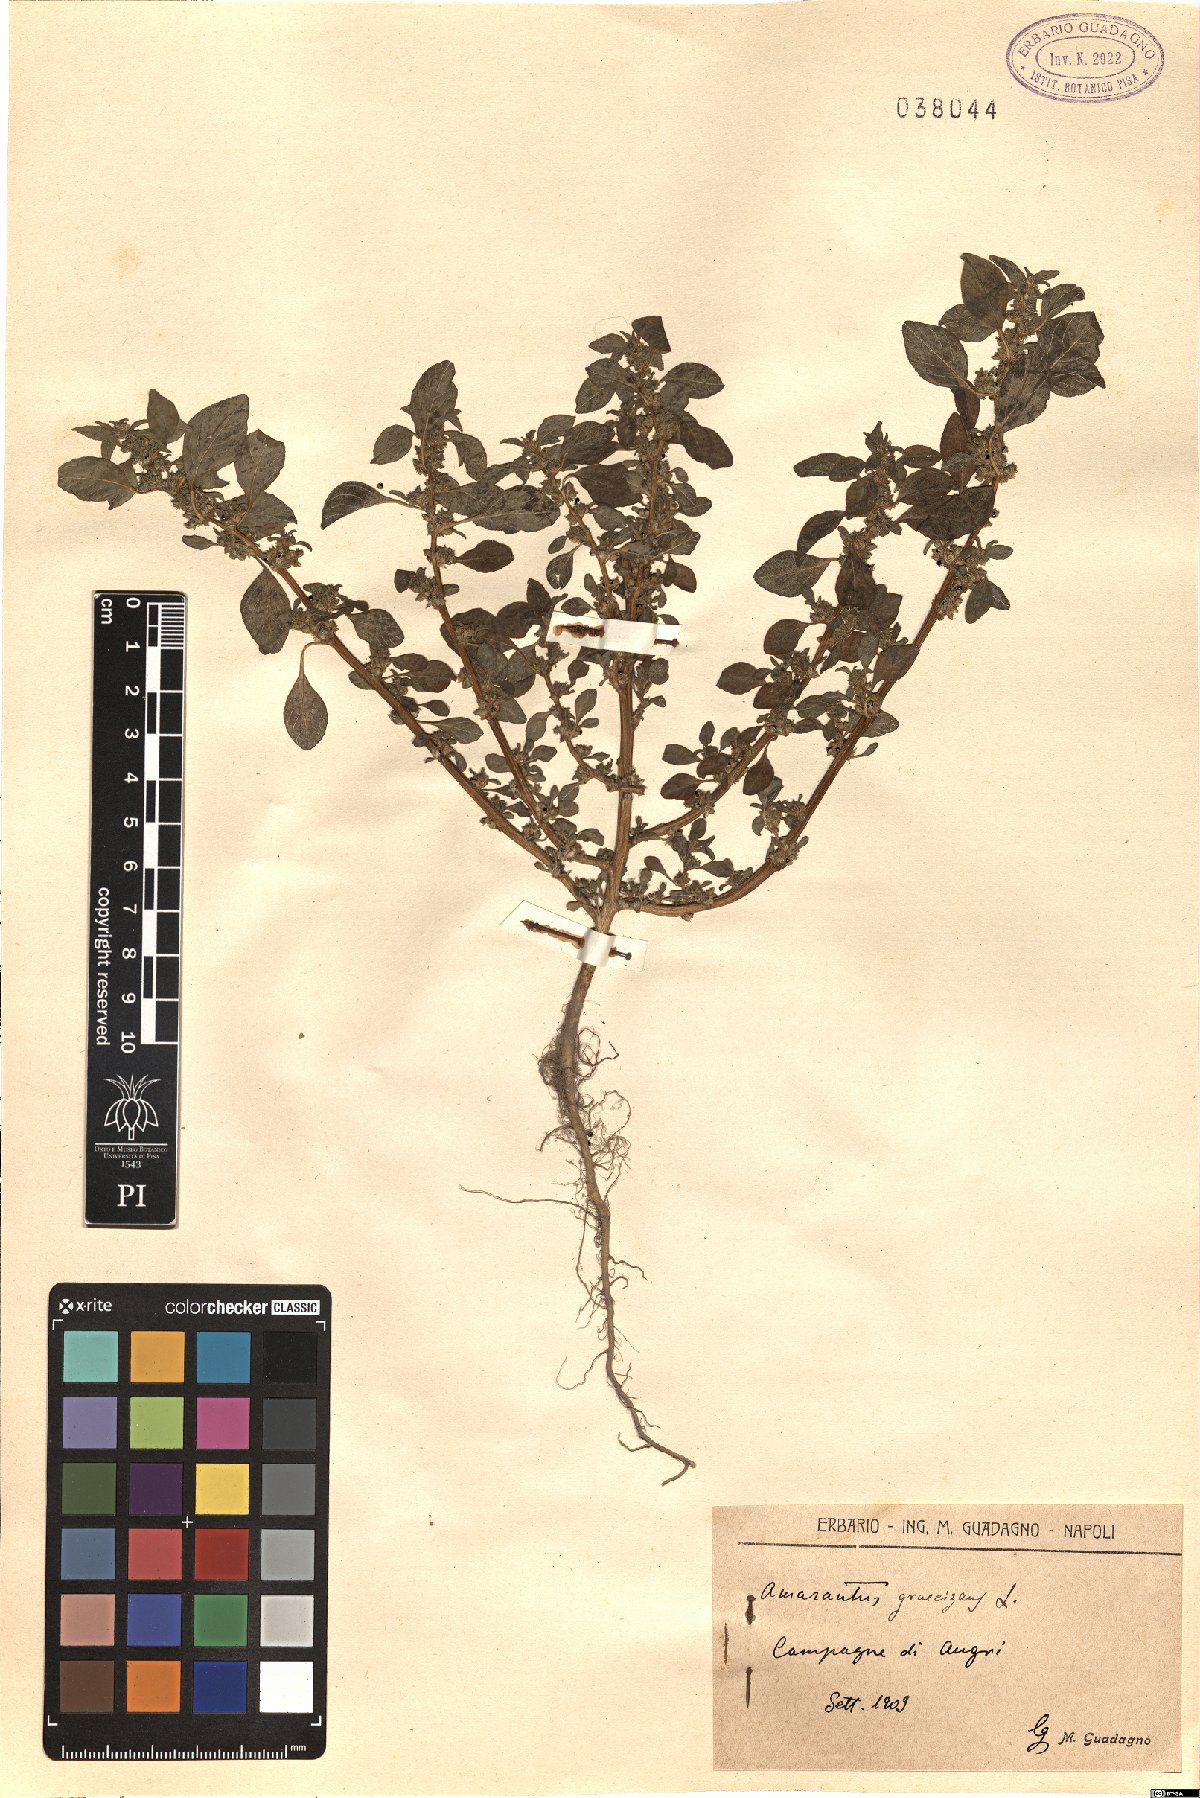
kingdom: Plantae
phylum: Tracheophyta
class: Magnoliopsida
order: Caryophyllales
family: Amaranthaceae
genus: Amaranthus
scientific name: Amaranthus graecizans
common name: Mediterranean amaranth
